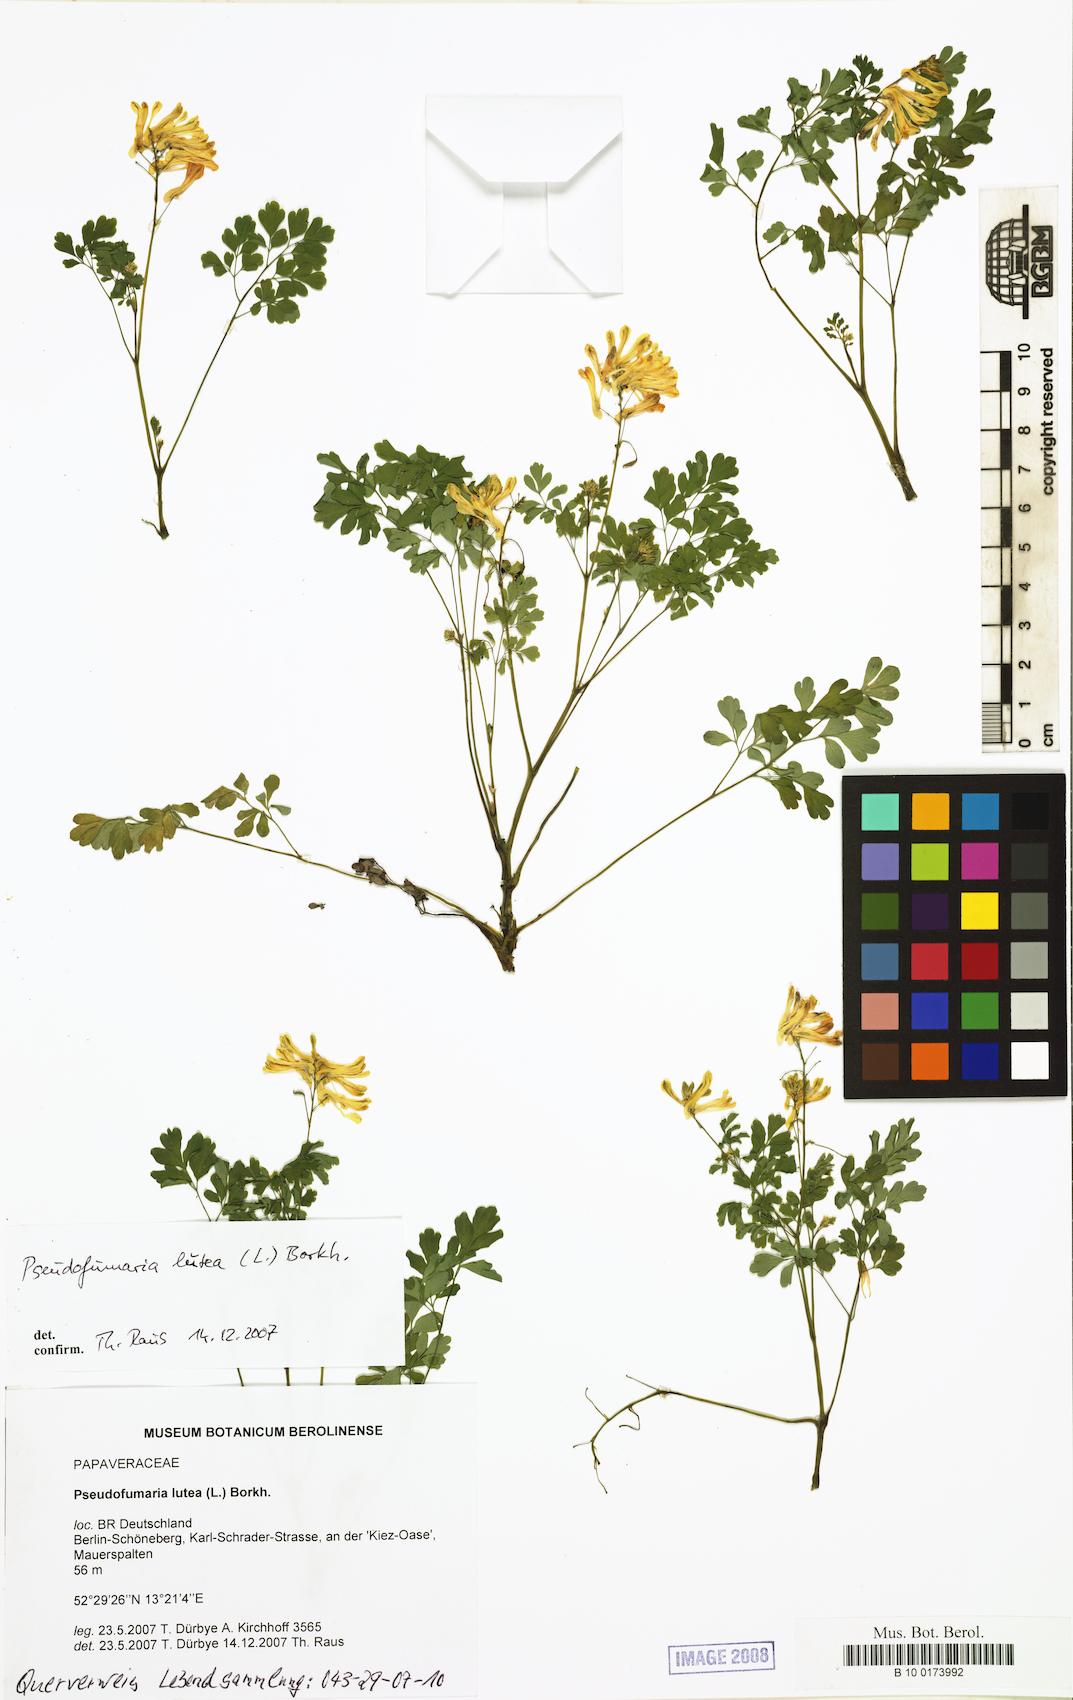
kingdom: Plantae
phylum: Tracheophyta
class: Magnoliopsida
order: Ranunculales
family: Papaveraceae
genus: Pseudofumaria
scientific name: Pseudofumaria lutea
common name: Yellow corydalis
